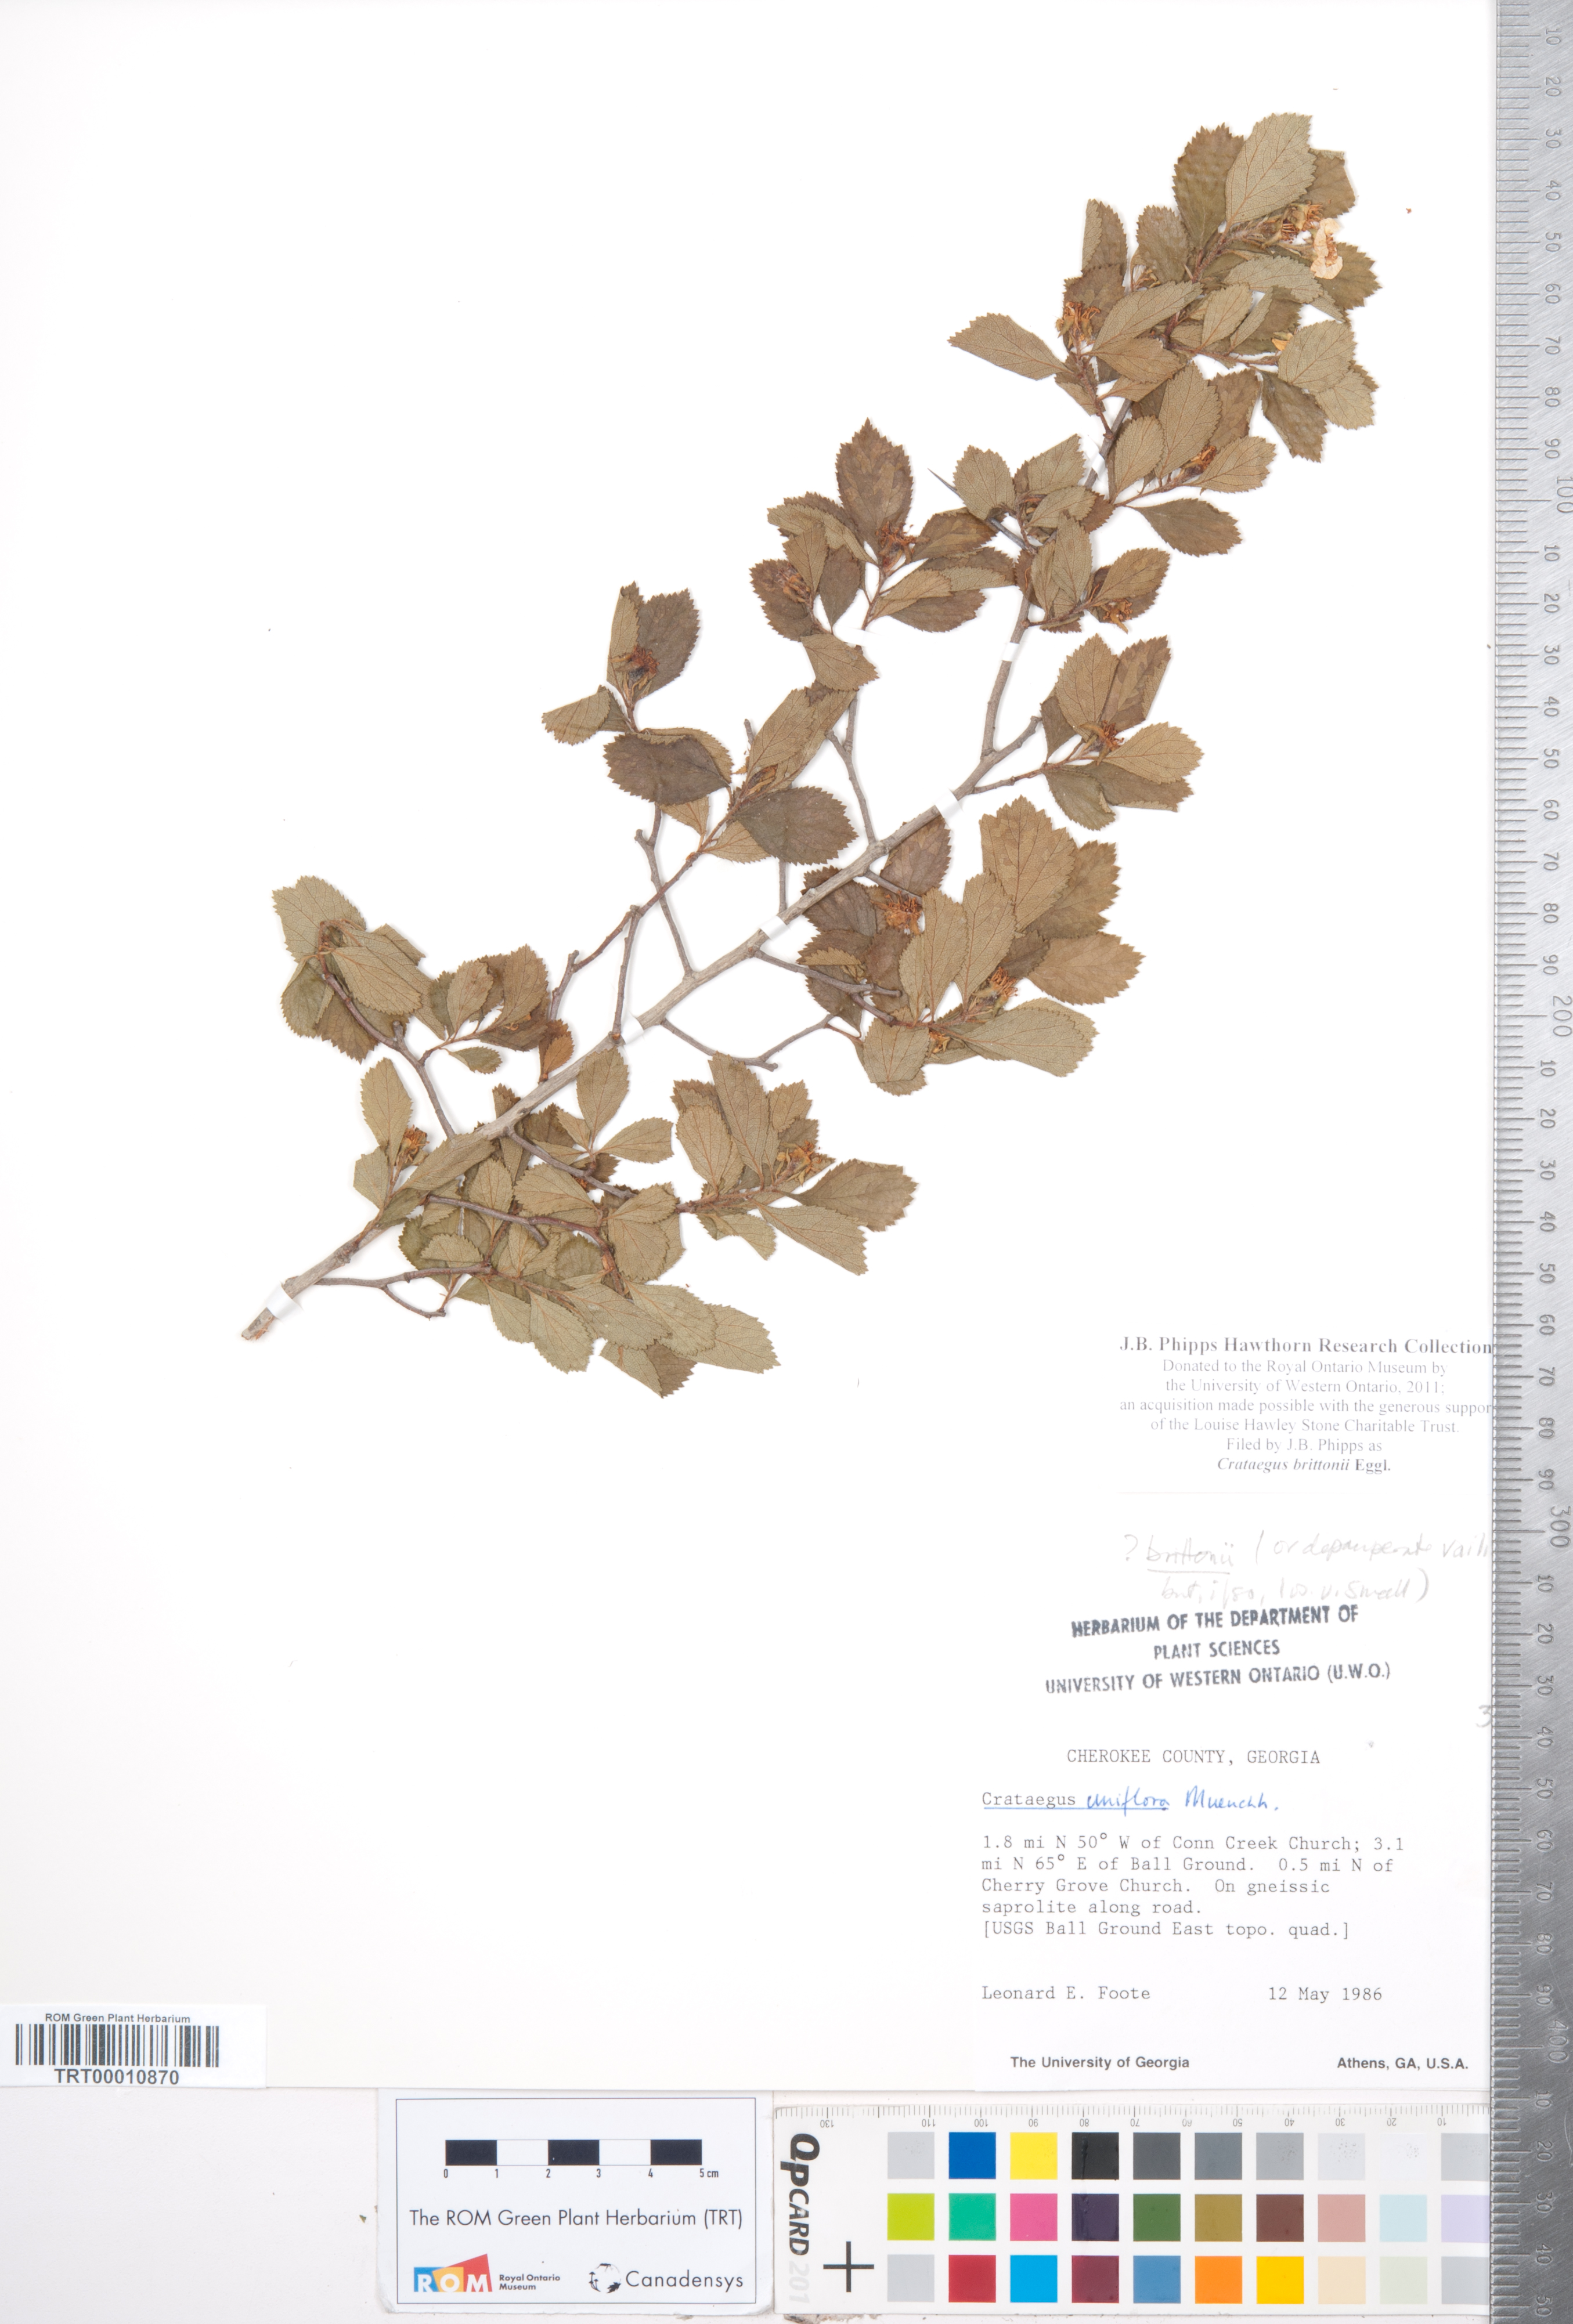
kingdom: Plantae
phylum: Tracheophyta
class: Magnoliopsida
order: Rosales
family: Rosaceae
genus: Crataegus
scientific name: Crataegus uniflora
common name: One-flower hawthorn
